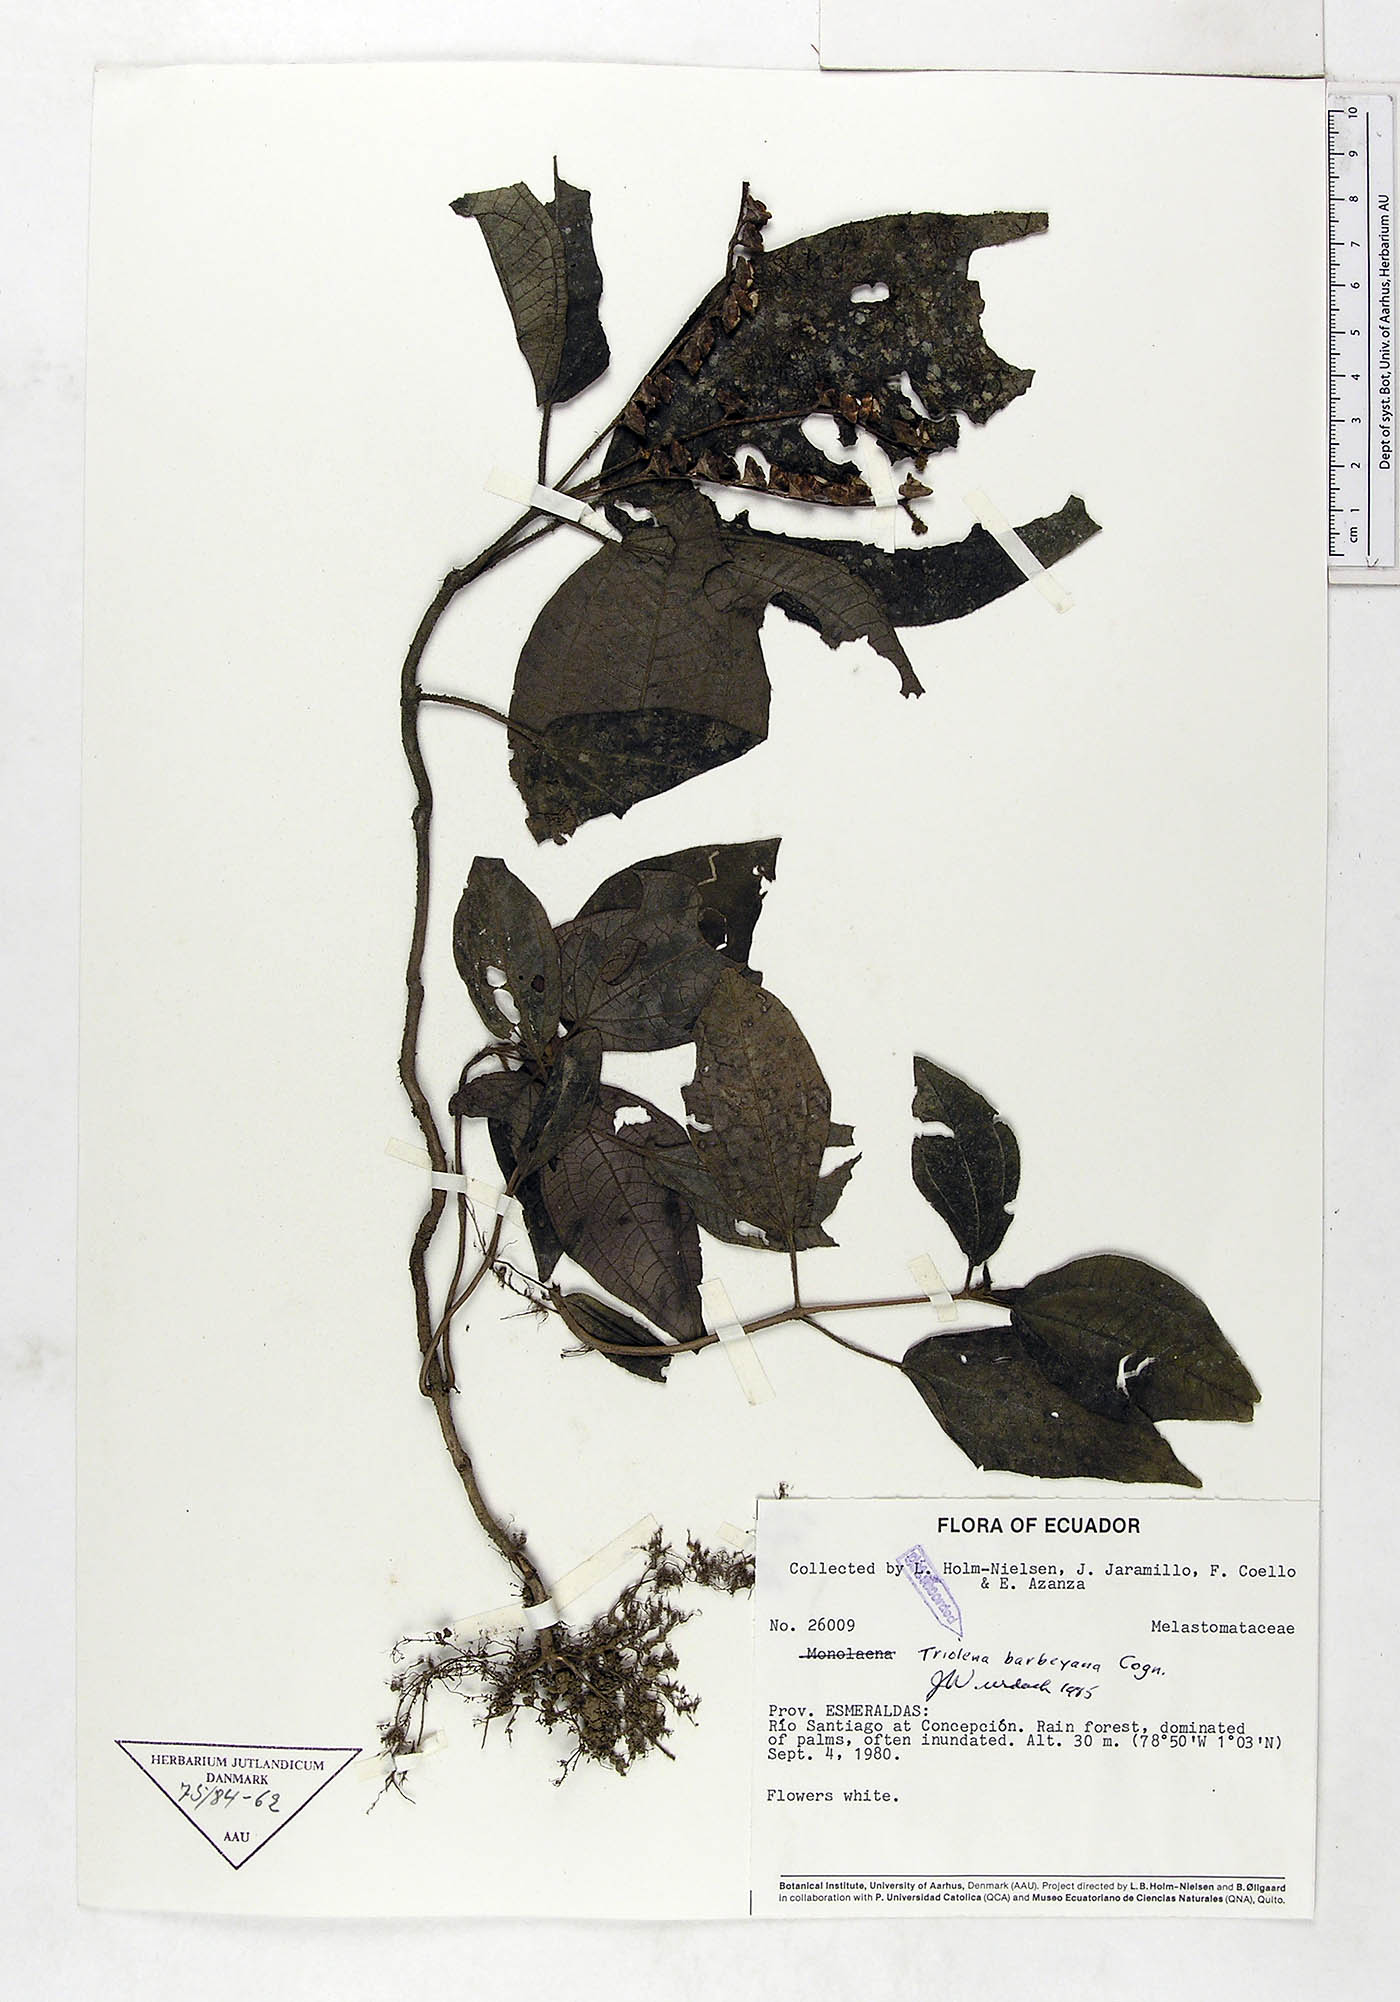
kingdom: Plantae
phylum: Tracheophyta
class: Magnoliopsida
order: Myrtales
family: Melastomataceae
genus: Triolena
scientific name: Triolena barbeyana
